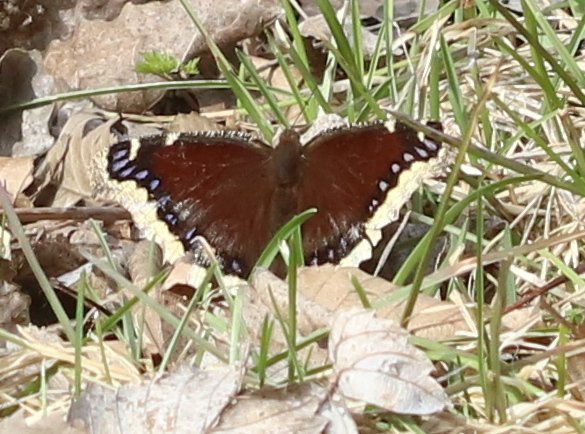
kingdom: Animalia
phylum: Arthropoda
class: Insecta
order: Lepidoptera
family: Nymphalidae
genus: Nymphalis
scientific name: Nymphalis antiopa
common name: Mourning Cloak
